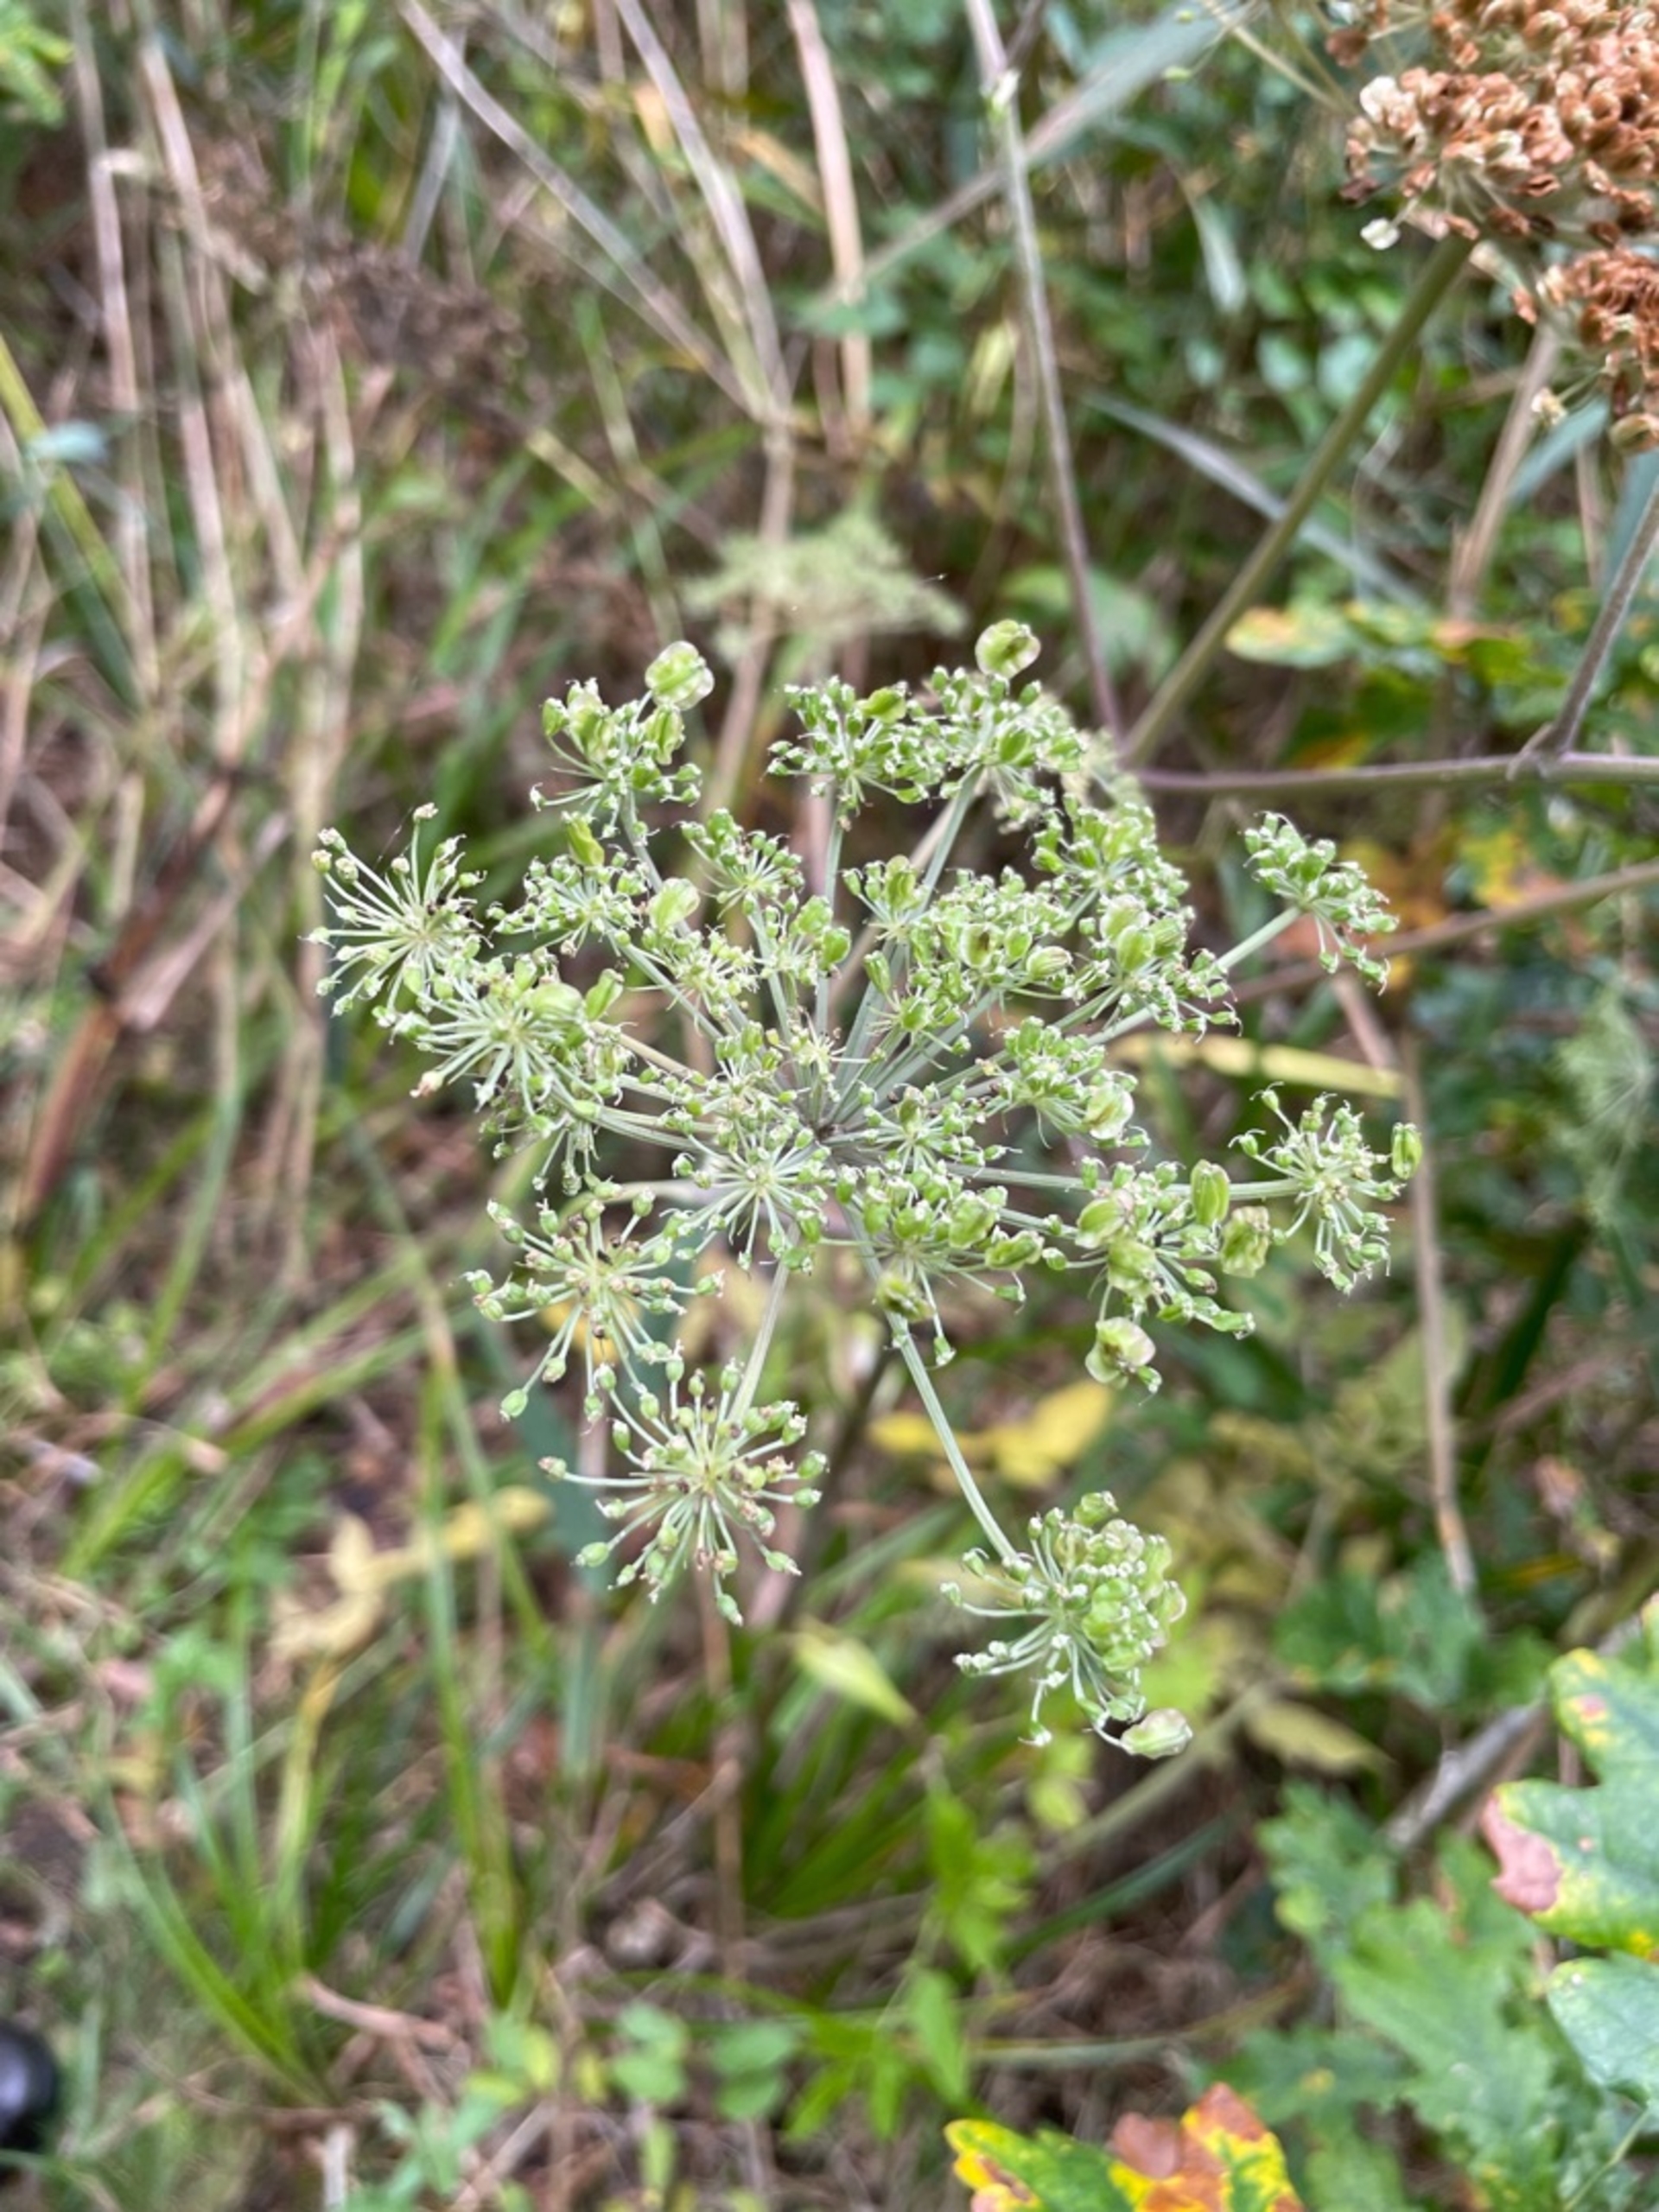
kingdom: Plantae
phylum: Tracheophyta
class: Magnoliopsida
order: Apiales
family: Apiaceae
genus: Angelica
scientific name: Angelica sylvestris
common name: Angelik
